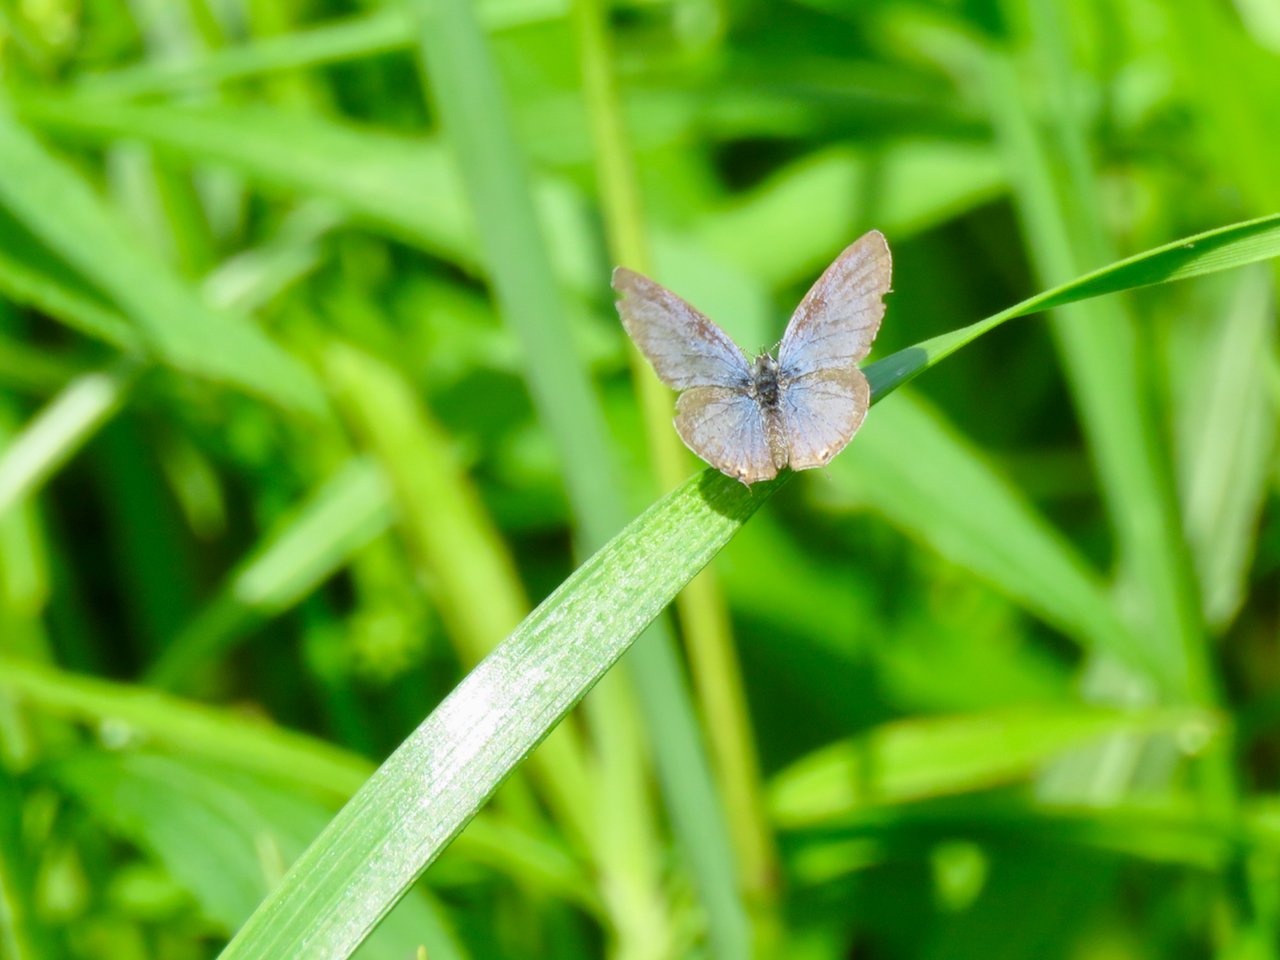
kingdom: Animalia
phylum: Arthropoda
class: Insecta
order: Lepidoptera
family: Lycaenidae
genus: Elkalyce
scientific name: Elkalyce comyntas
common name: Eastern Tailed-Blue
